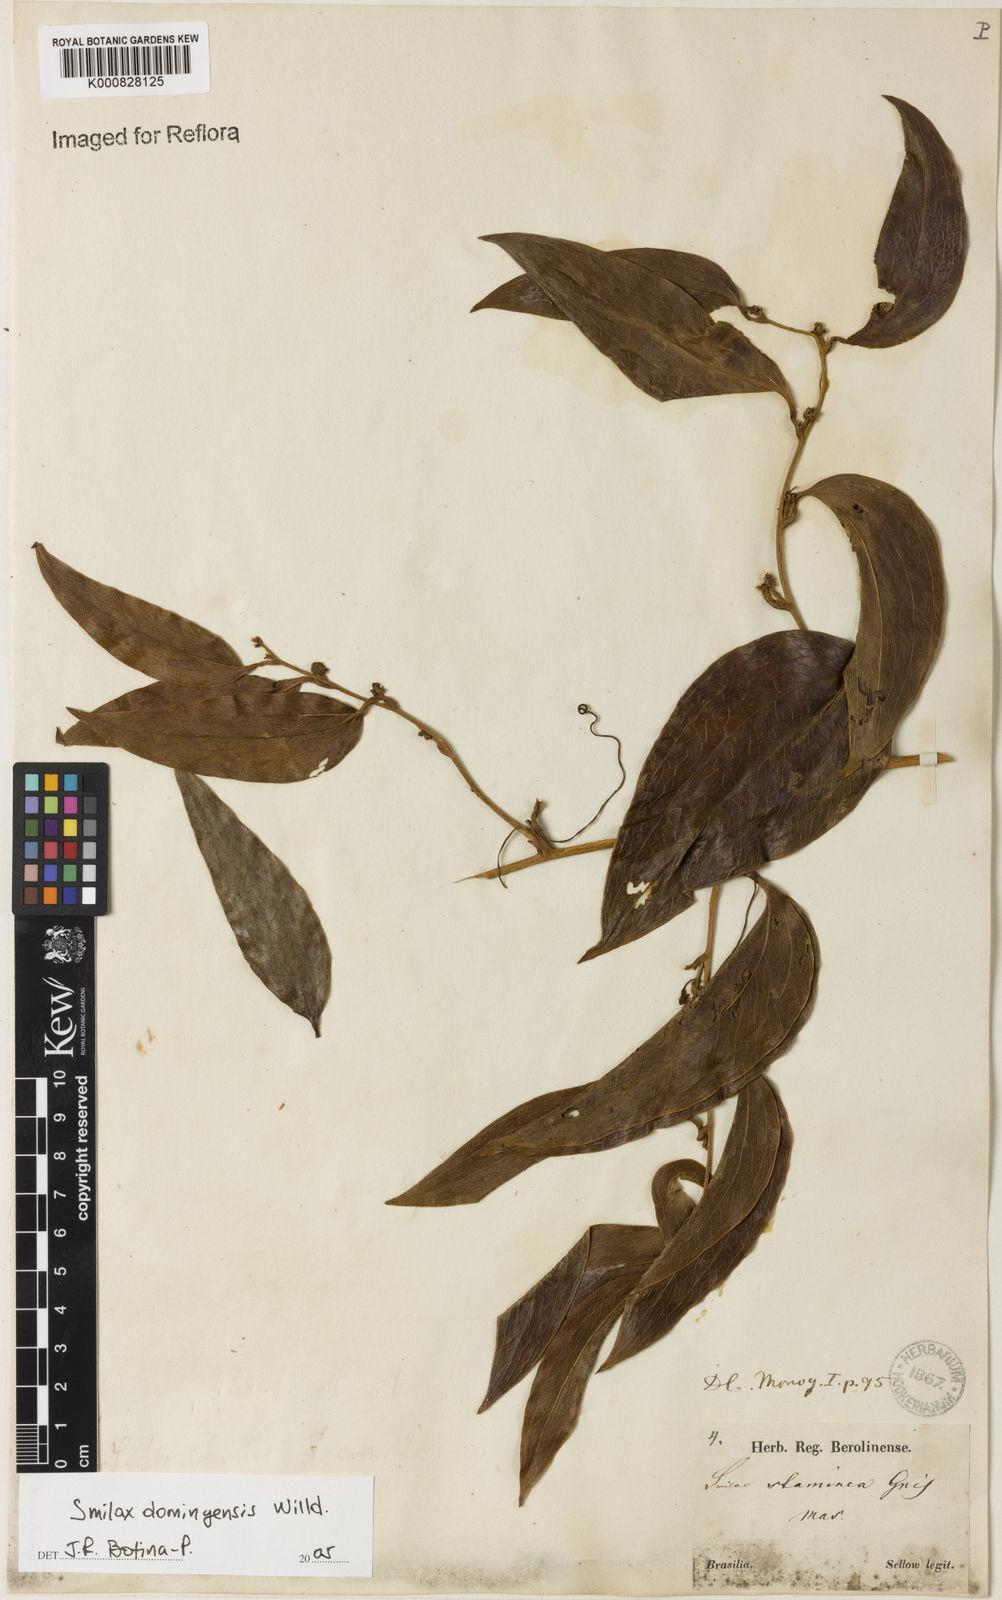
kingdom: Plantae
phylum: Tracheophyta
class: Liliopsida
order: Liliales
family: Smilacaceae
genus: Smilax
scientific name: Smilax domingensis
